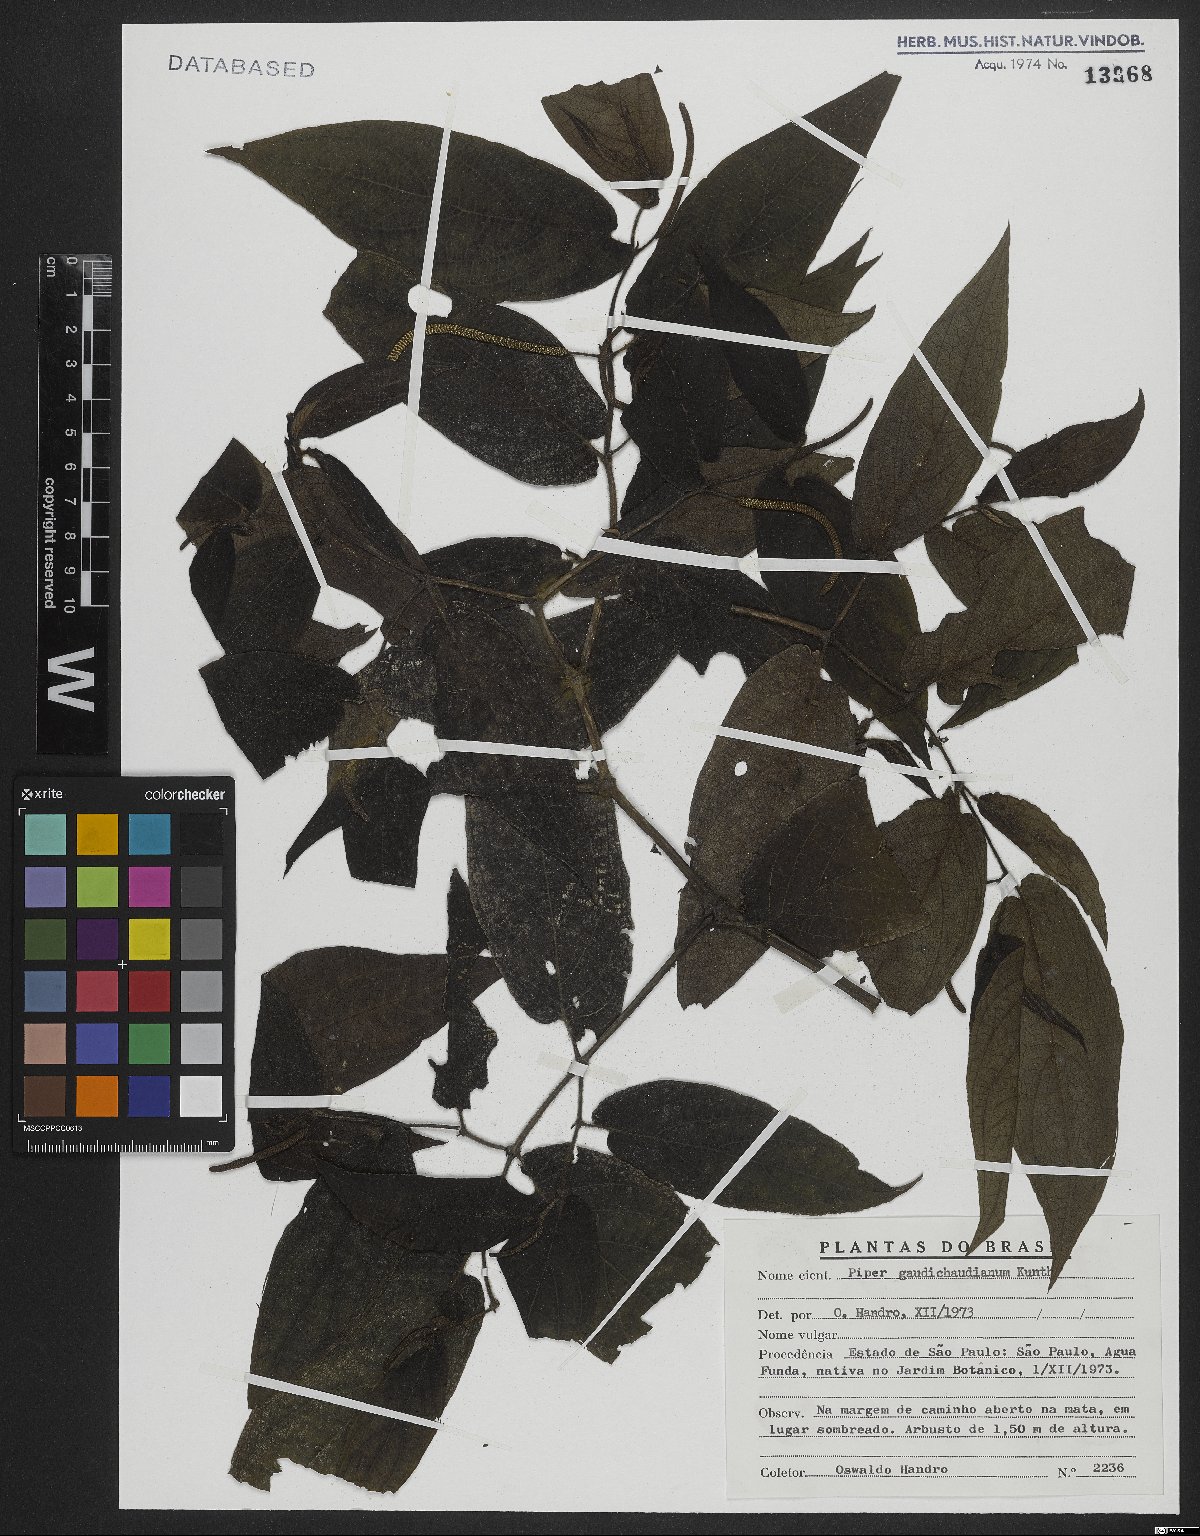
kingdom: Plantae
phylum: Tracheophyta
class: Magnoliopsida
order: Piperales
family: Piperaceae
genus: Piper
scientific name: Piper gaudichaudianum
